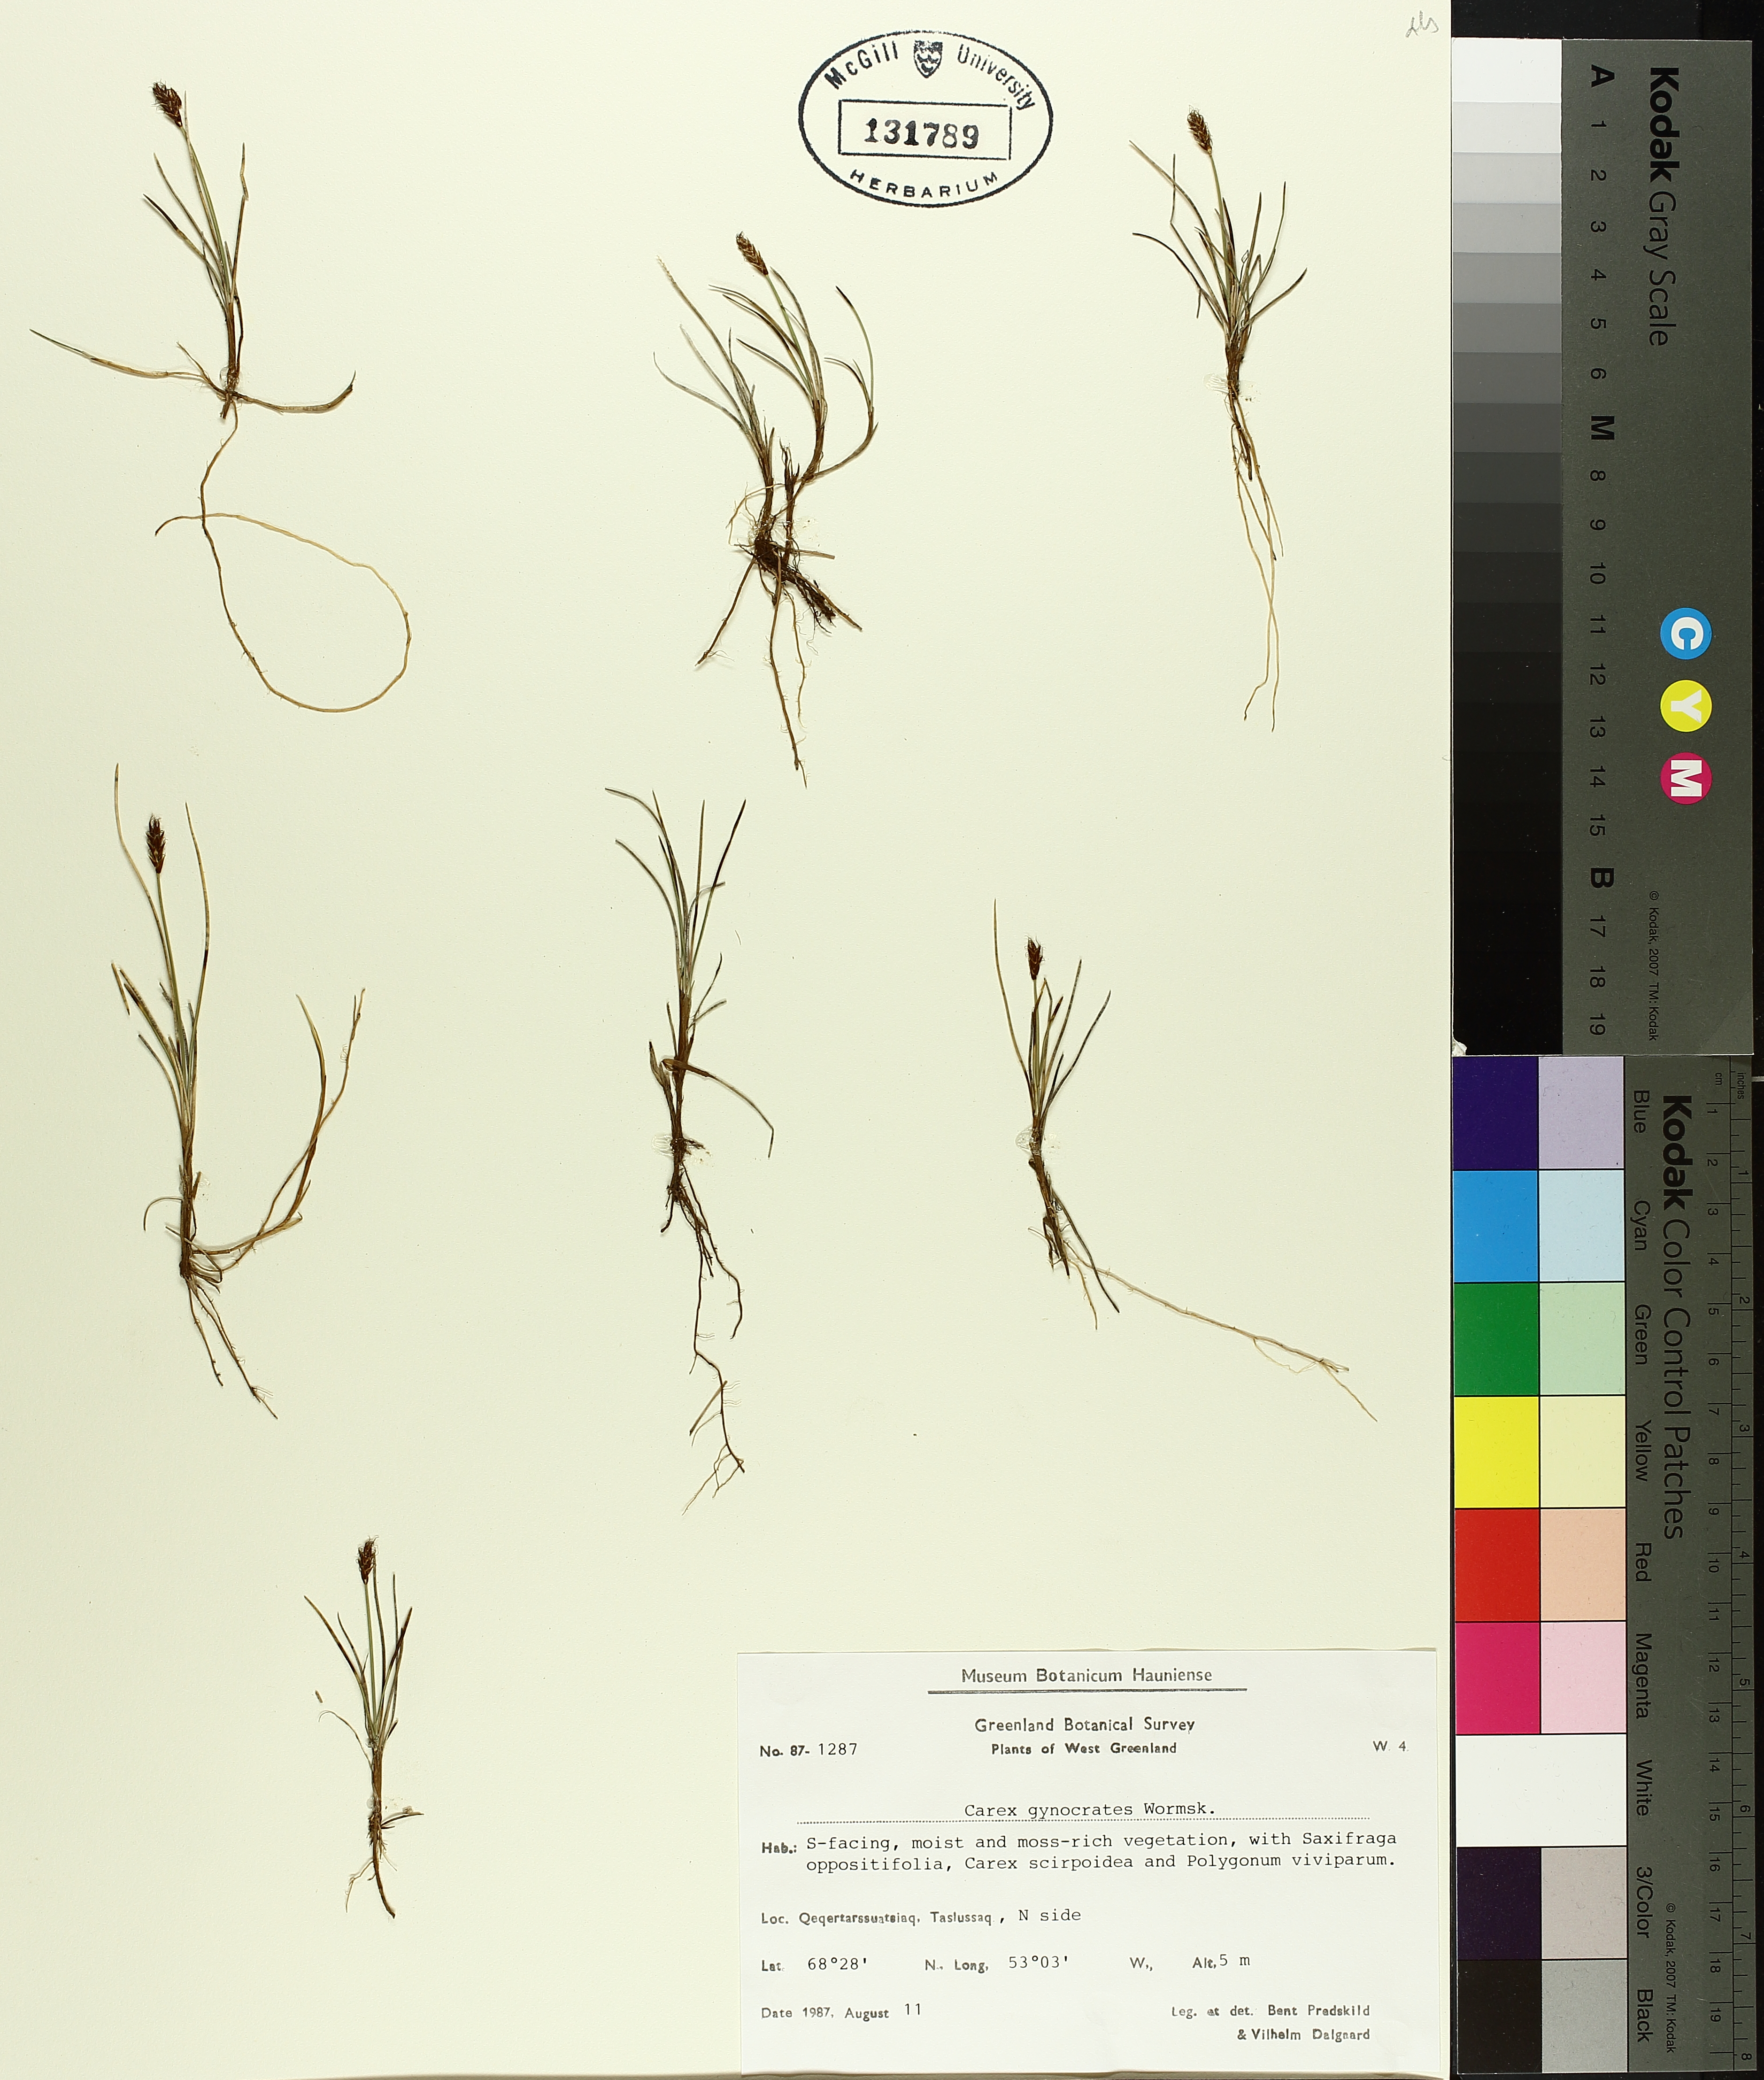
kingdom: Plantae
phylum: Tracheophyta
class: Liliopsida
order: Poales
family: Cyperaceae
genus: Carex
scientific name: Carex gynocrates
